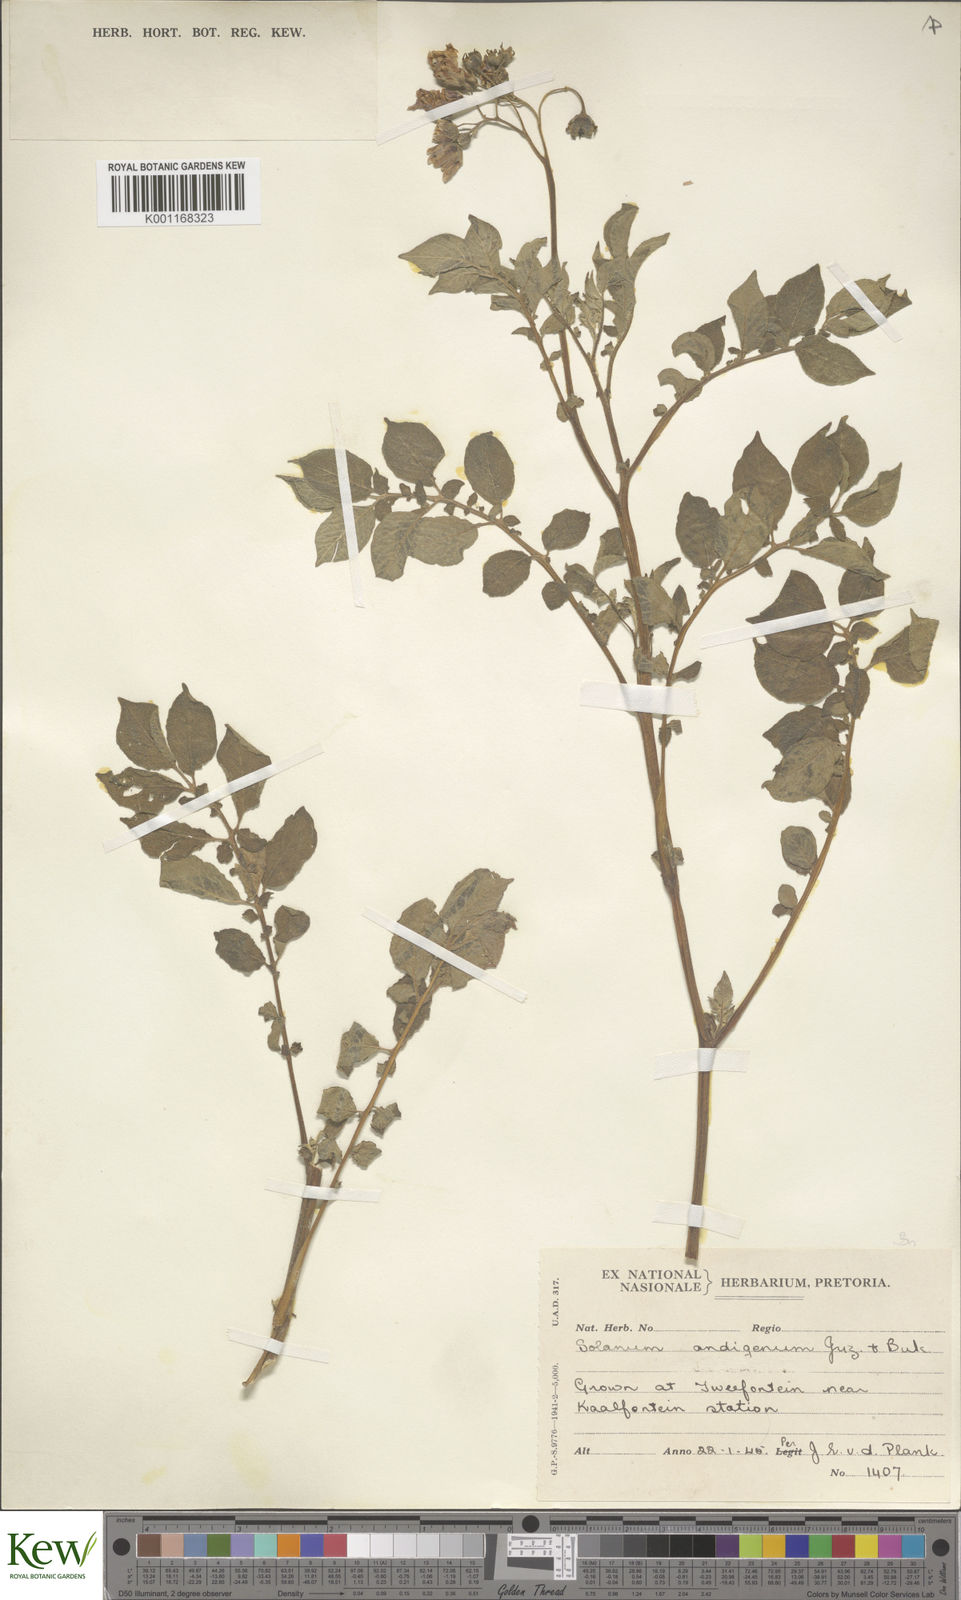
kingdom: Plantae
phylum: Tracheophyta
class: Magnoliopsida
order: Solanales
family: Solanaceae
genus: Solanum
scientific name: Solanum tuberosum
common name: Potato
